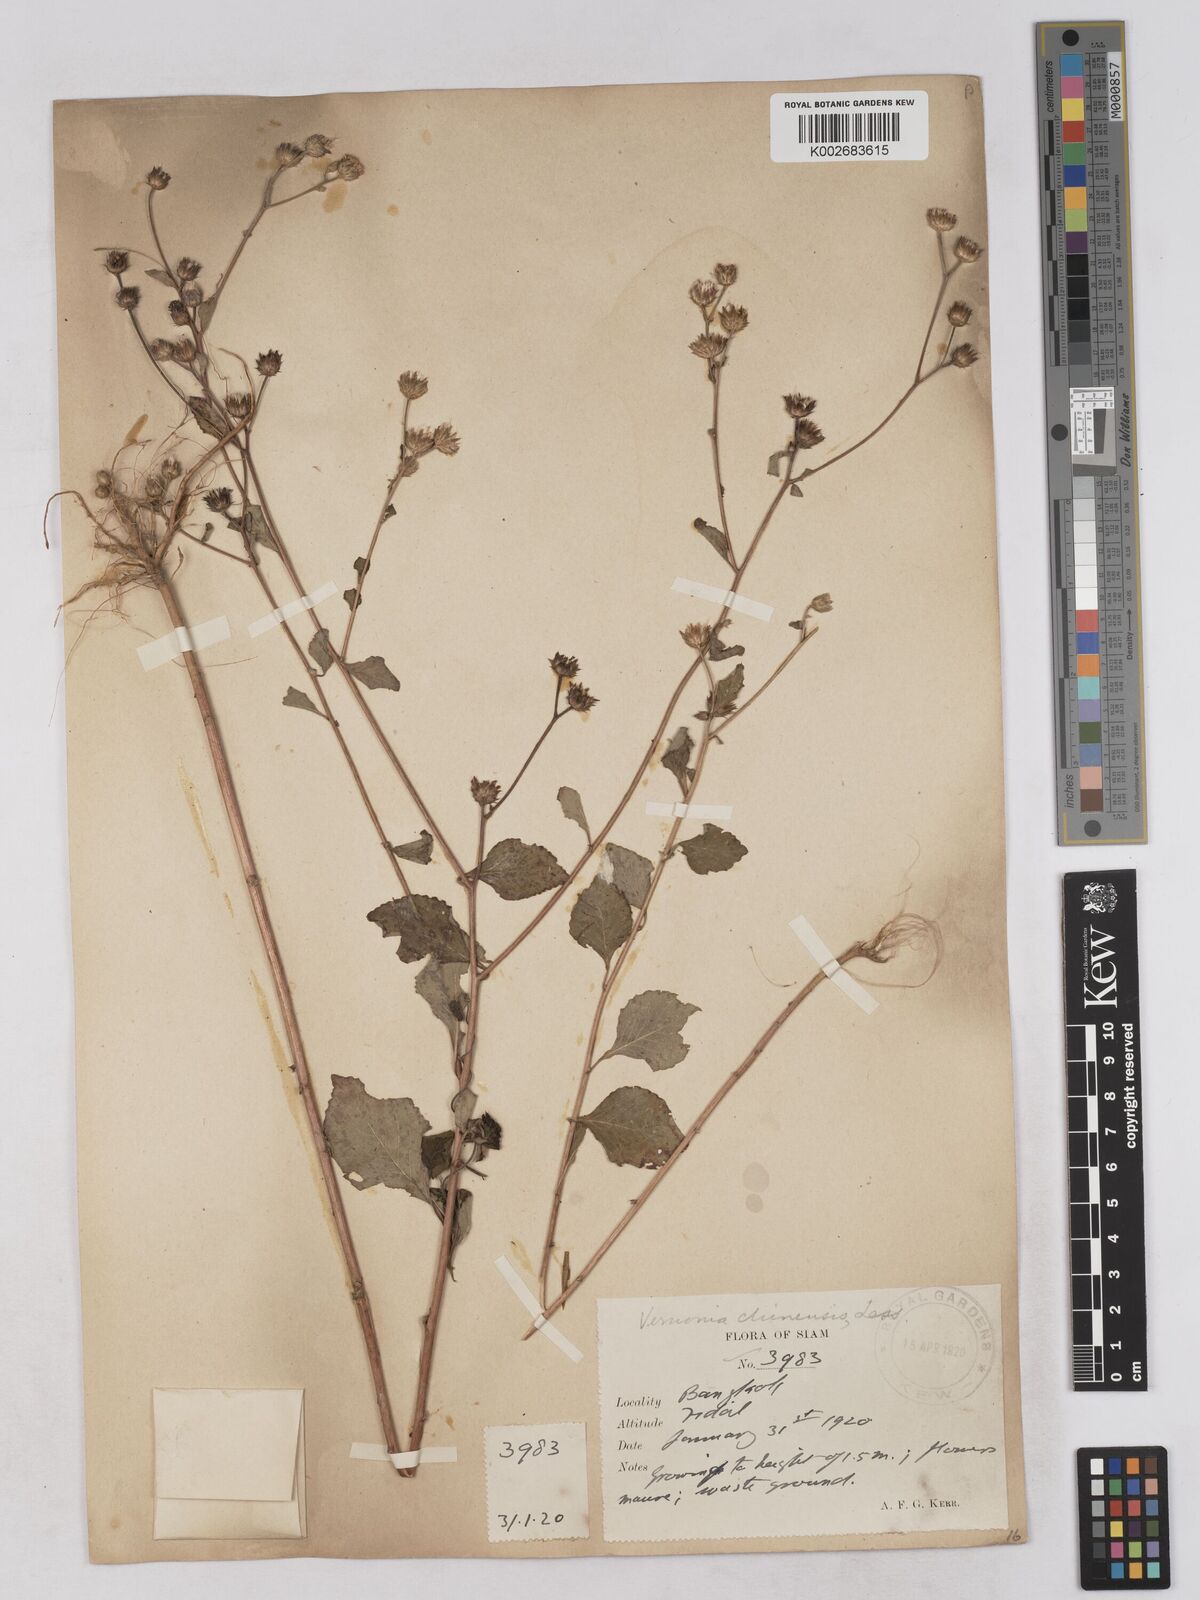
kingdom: Plantae
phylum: Tracheophyta
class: Magnoliopsida
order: Asterales
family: Asteraceae
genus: Cyanthillium
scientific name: Cyanthillium patulum
